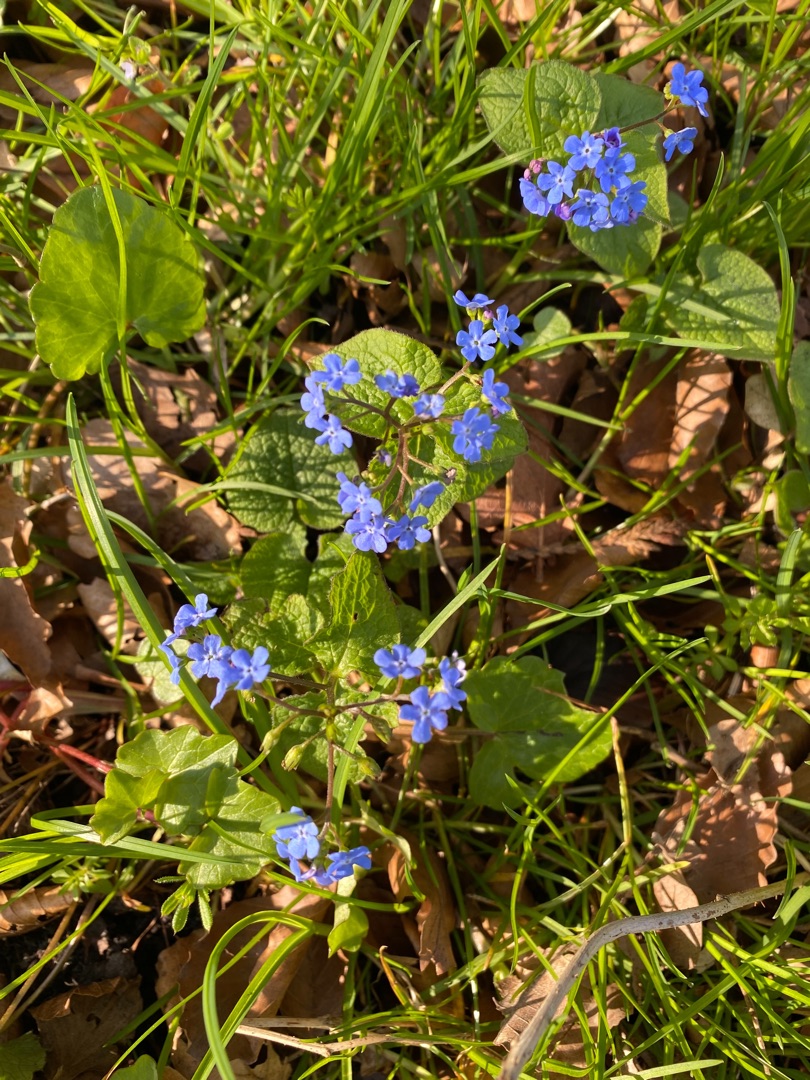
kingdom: Plantae
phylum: Tracheophyta
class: Magnoliopsida
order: Boraginales
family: Boraginaceae
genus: Brunnera
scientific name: Brunnera macrophylla
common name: Kærmindesøster
